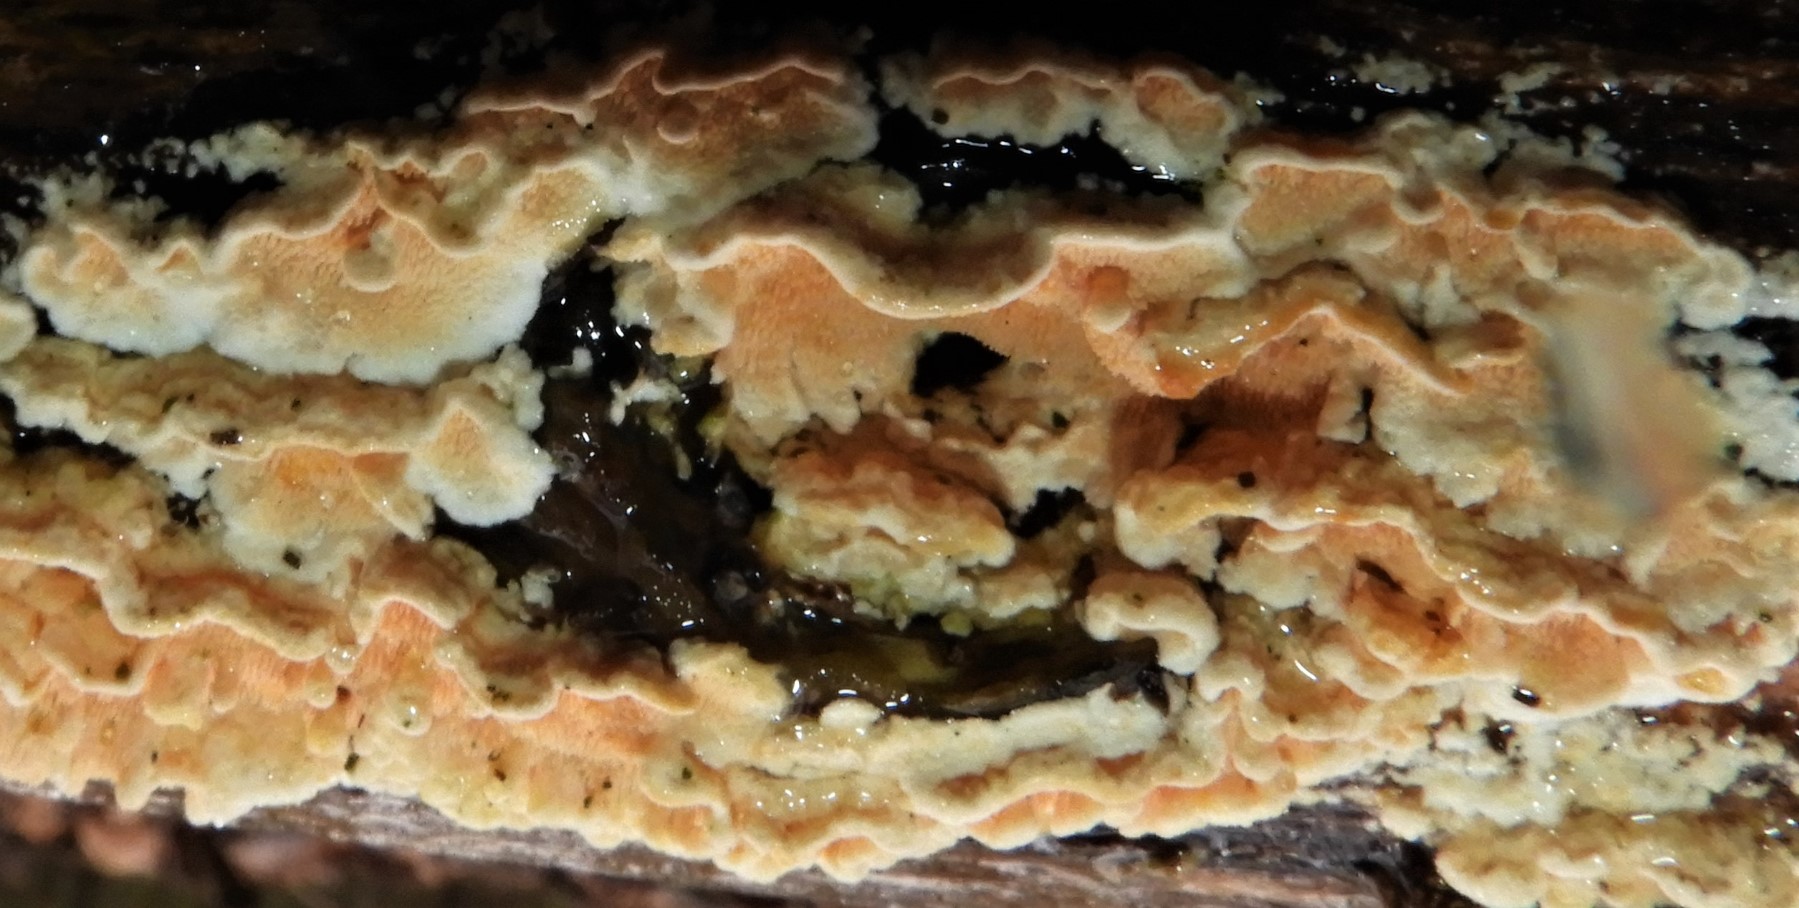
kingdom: Fungi
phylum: Basidiomycota
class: Agaricomycetes
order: Polyporales
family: Steccherinaceae
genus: Steccherinum
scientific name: Steccherinum ochraceum
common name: almindelig skønpig
